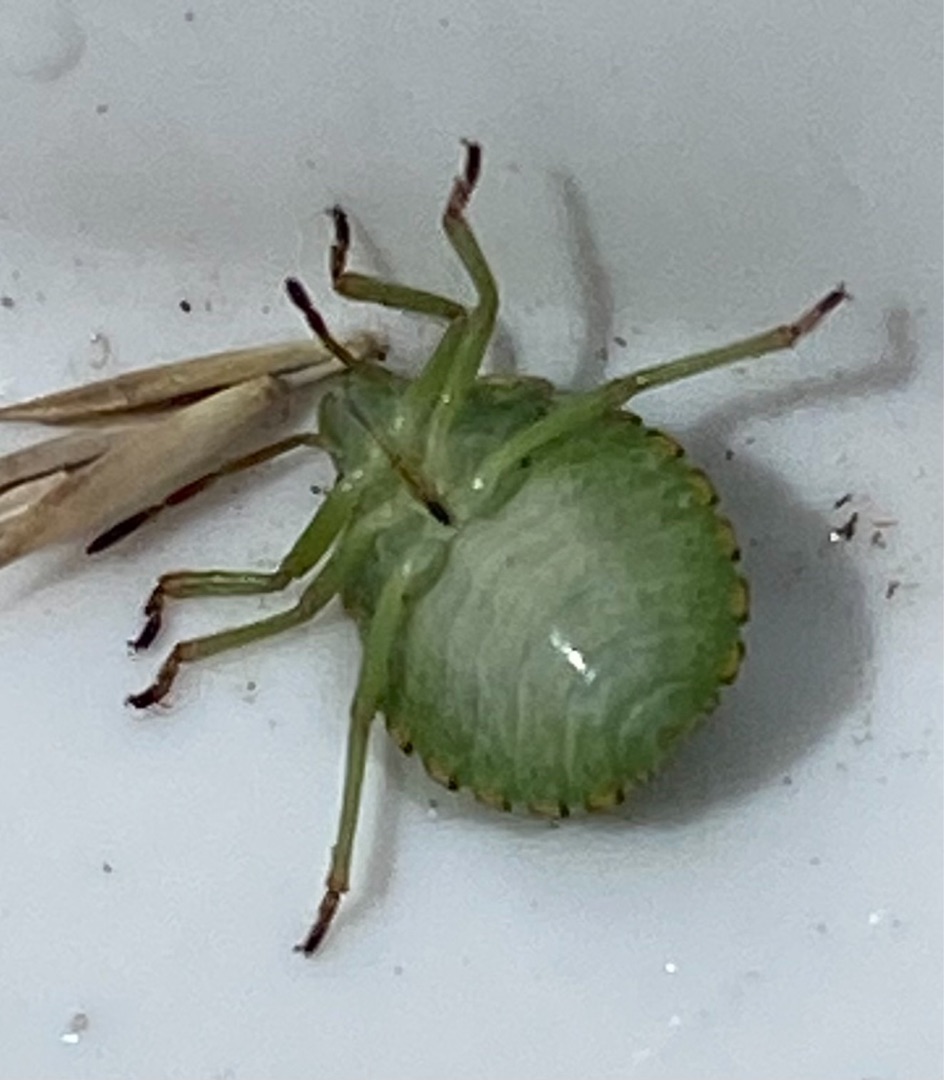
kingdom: Animalia
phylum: Arthropoda
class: Insecta
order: Hemiptera
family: Pentatomidae
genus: Palomena
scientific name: Palomena prasina
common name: Grøn bredtæge
